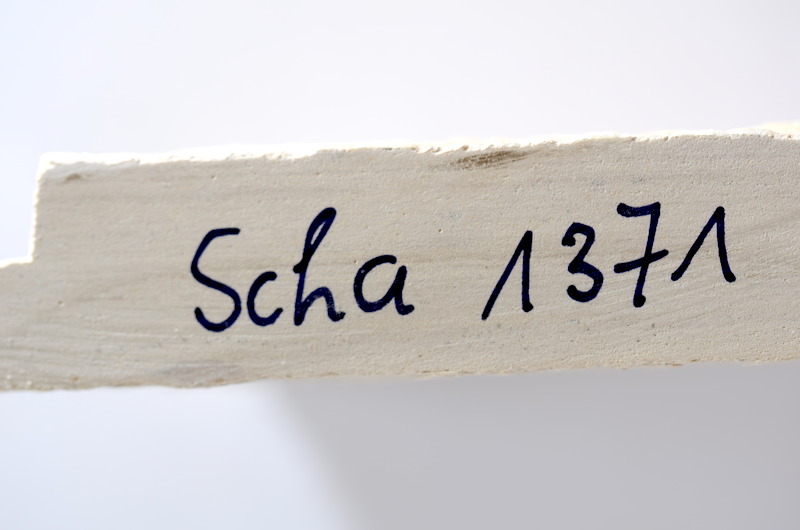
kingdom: Animalia
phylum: Chordata
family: Ascalaboidae
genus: Tharsis
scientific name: Tharsis dubius
